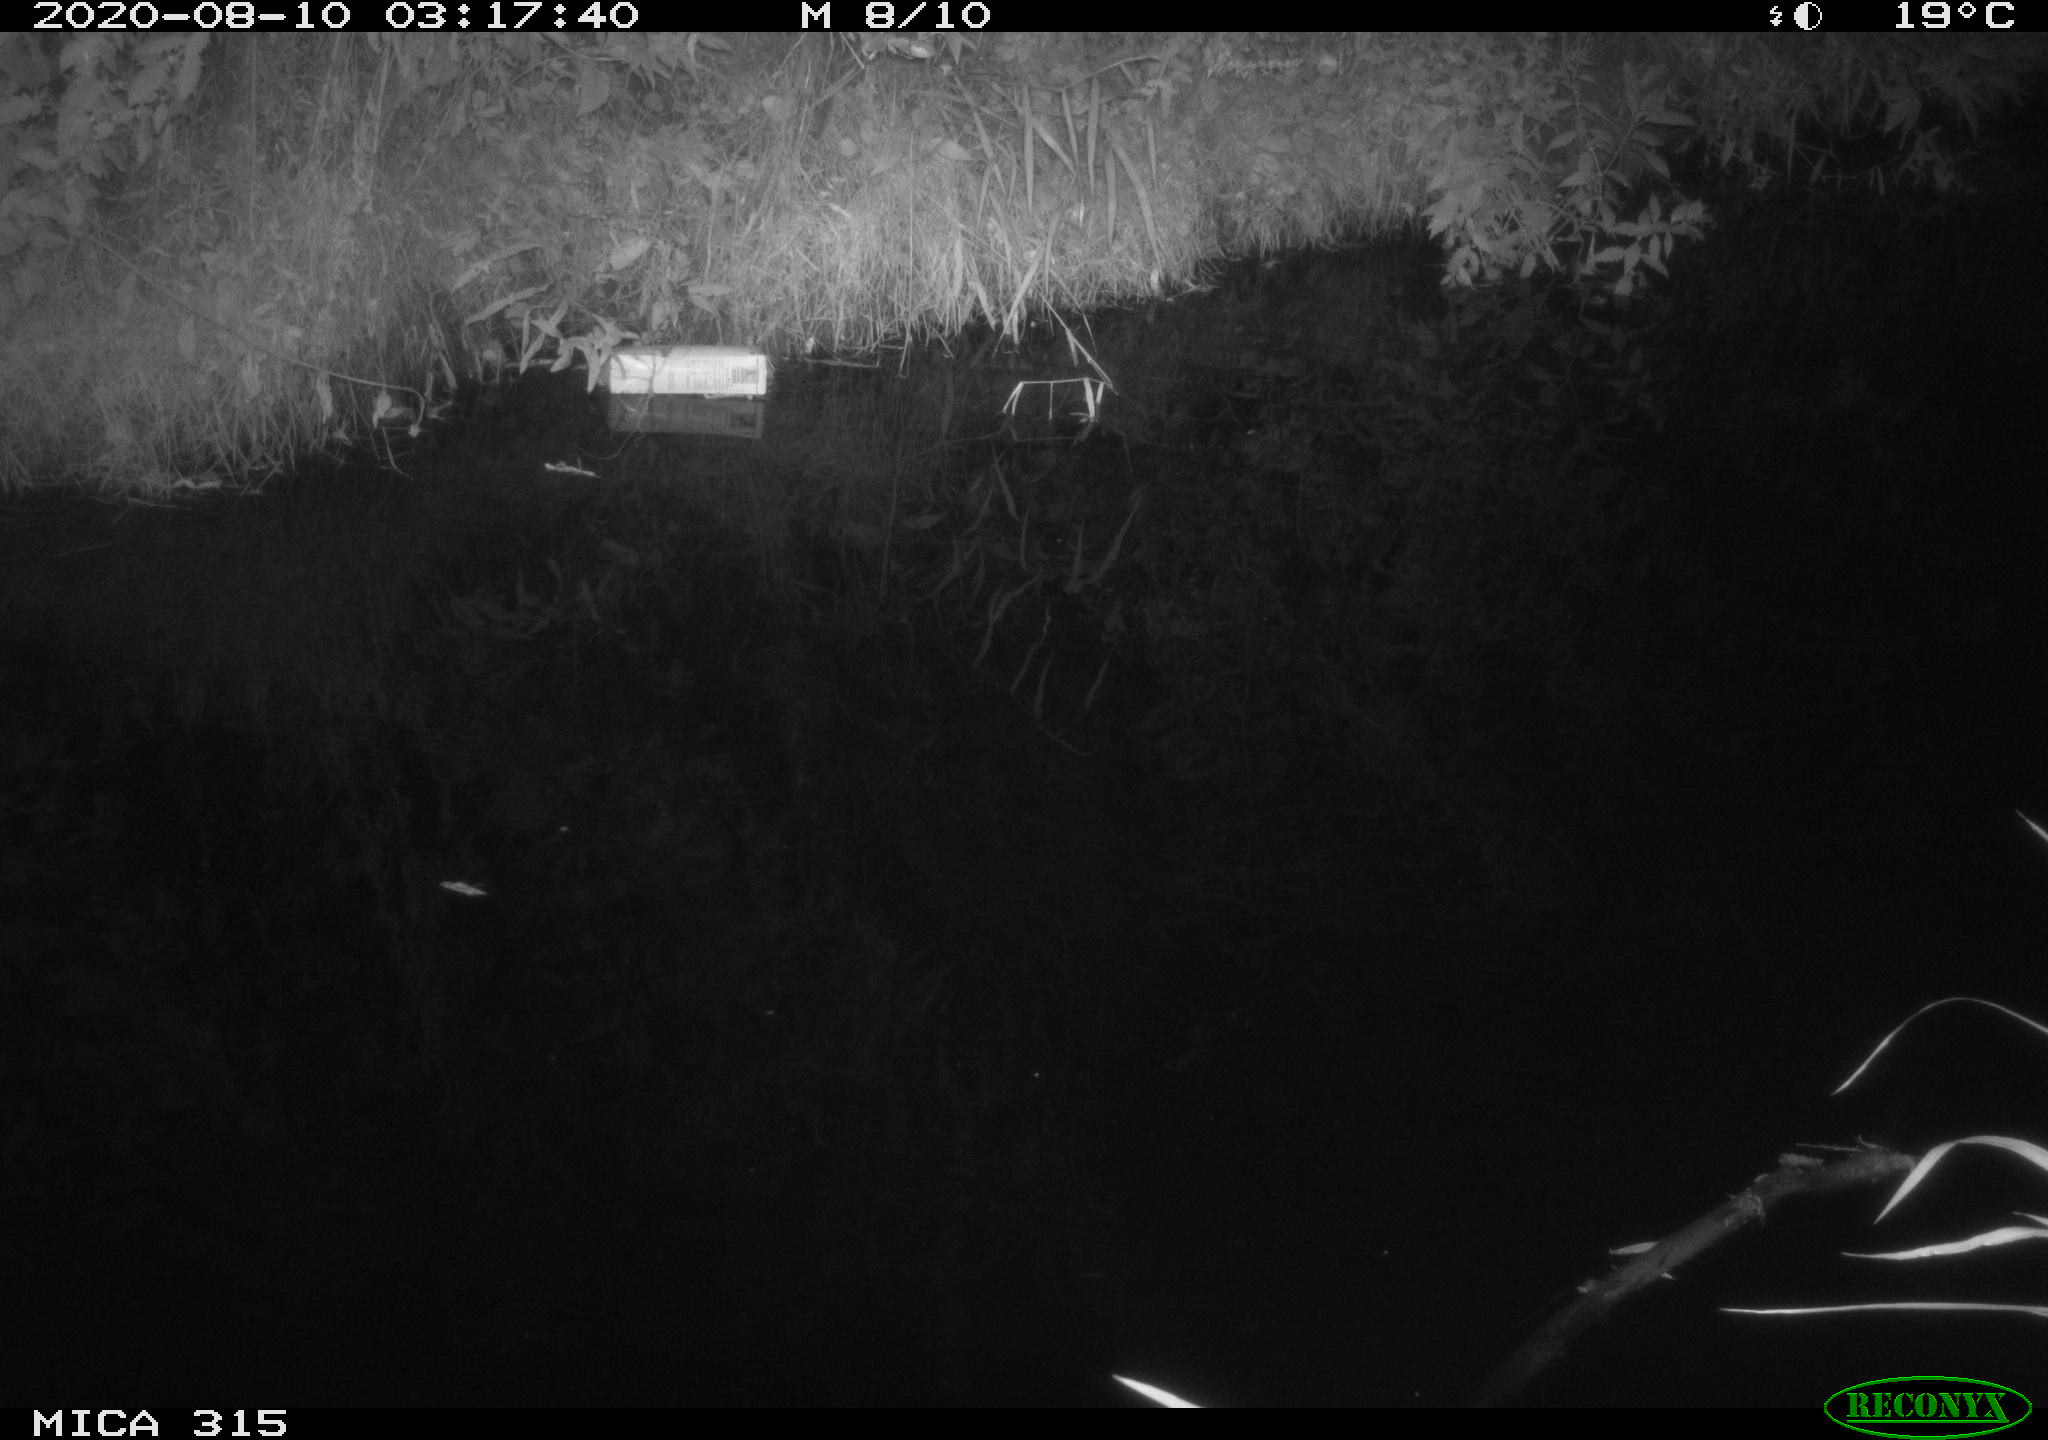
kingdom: Animalia
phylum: Chordata
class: Aves
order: Anseriformes
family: Anatidae
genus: Anas
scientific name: Anas platyrhynchos
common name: Mallard
